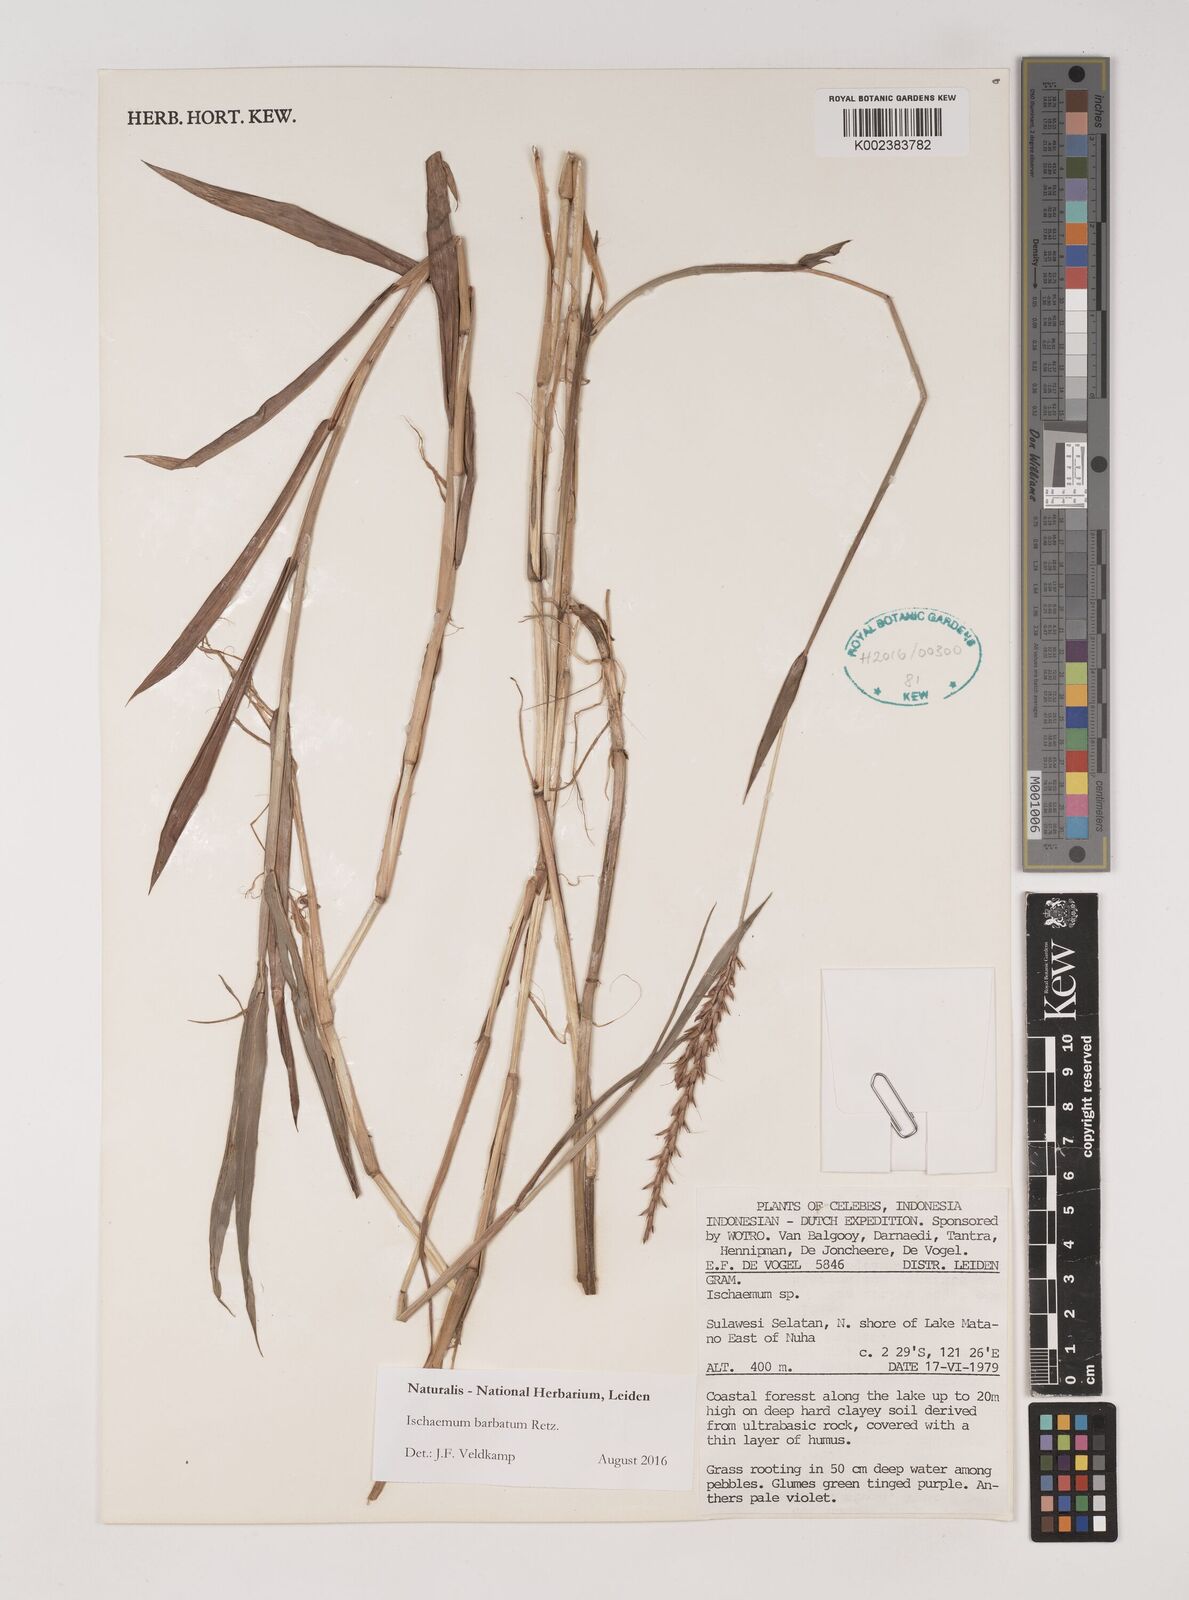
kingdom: Plantae
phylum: Tracheophyta
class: Liliopsida
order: Poales
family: Poaceae
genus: Ischaemum
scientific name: Ischaemum barbatum
